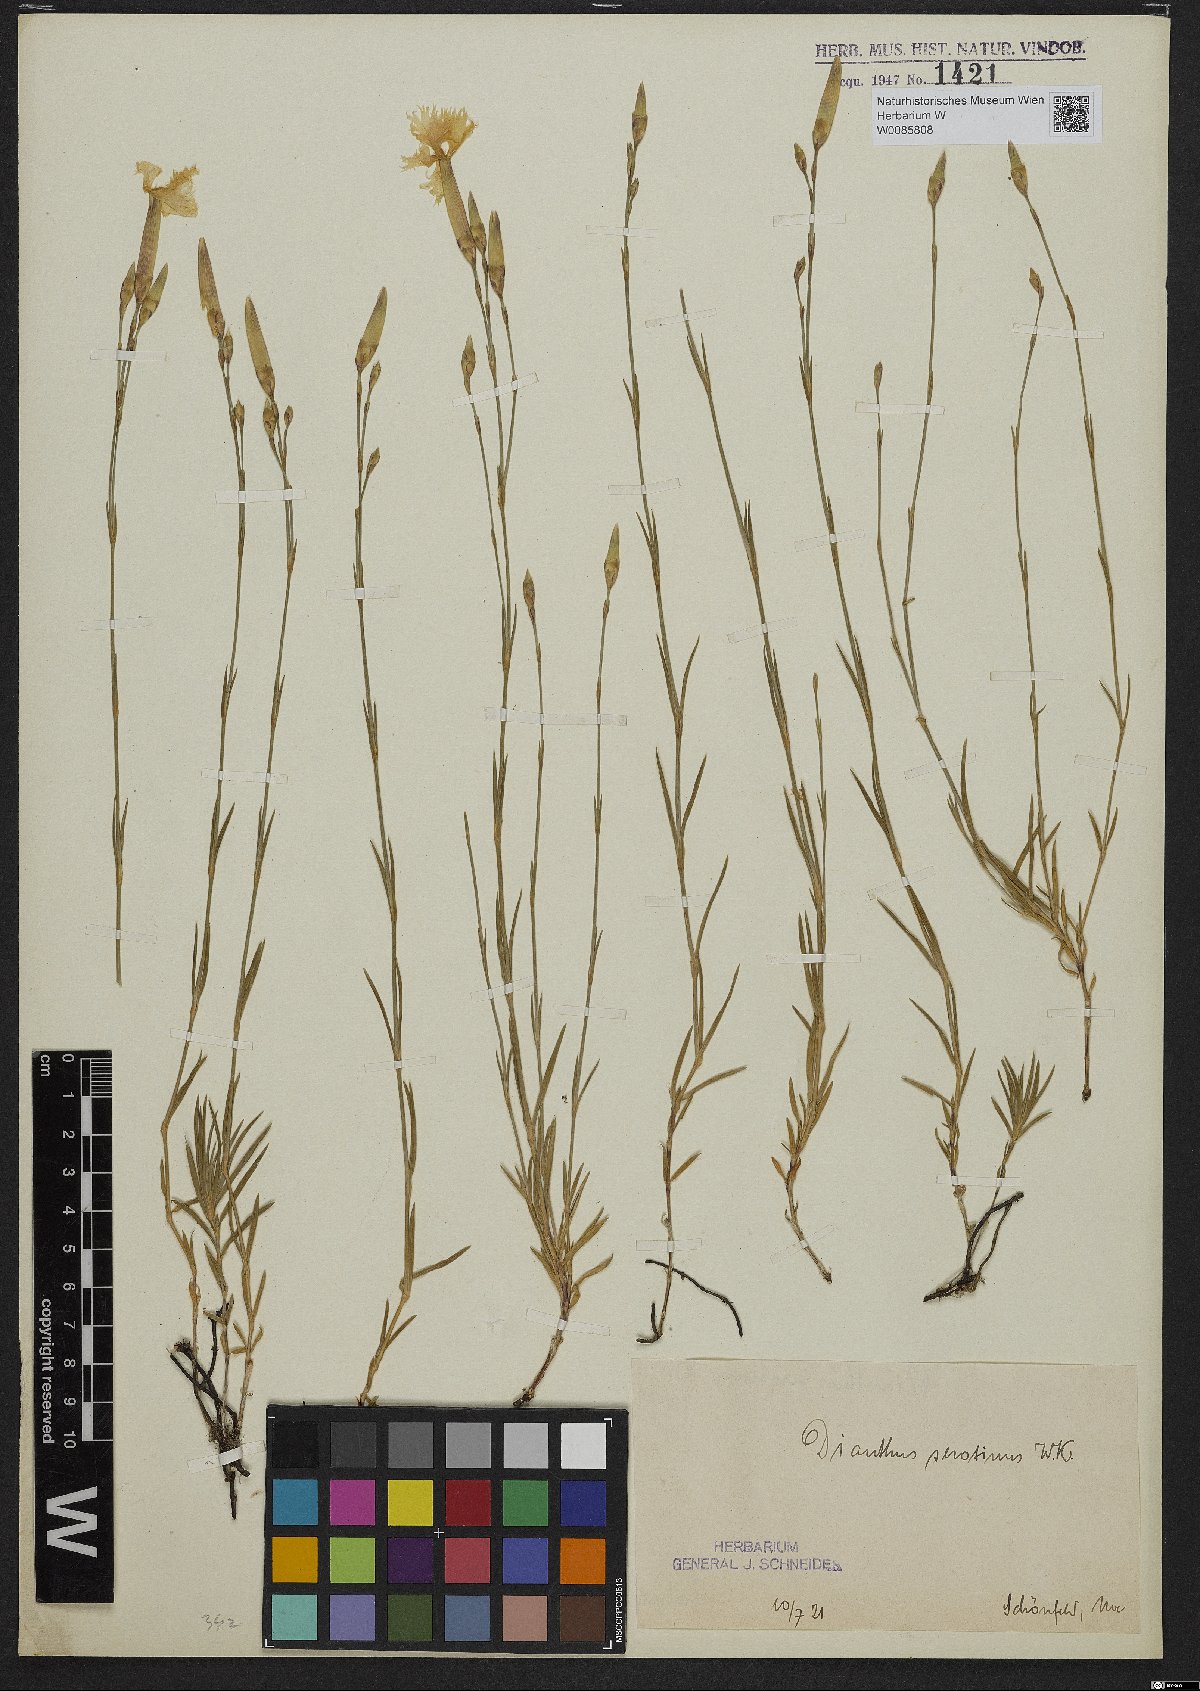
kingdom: Plantae
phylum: Tracheophyta
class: Magnoliopsida
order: Caryophyllales
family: Caryophyllaceae
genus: Dianthus
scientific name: Dianthus serotinus
